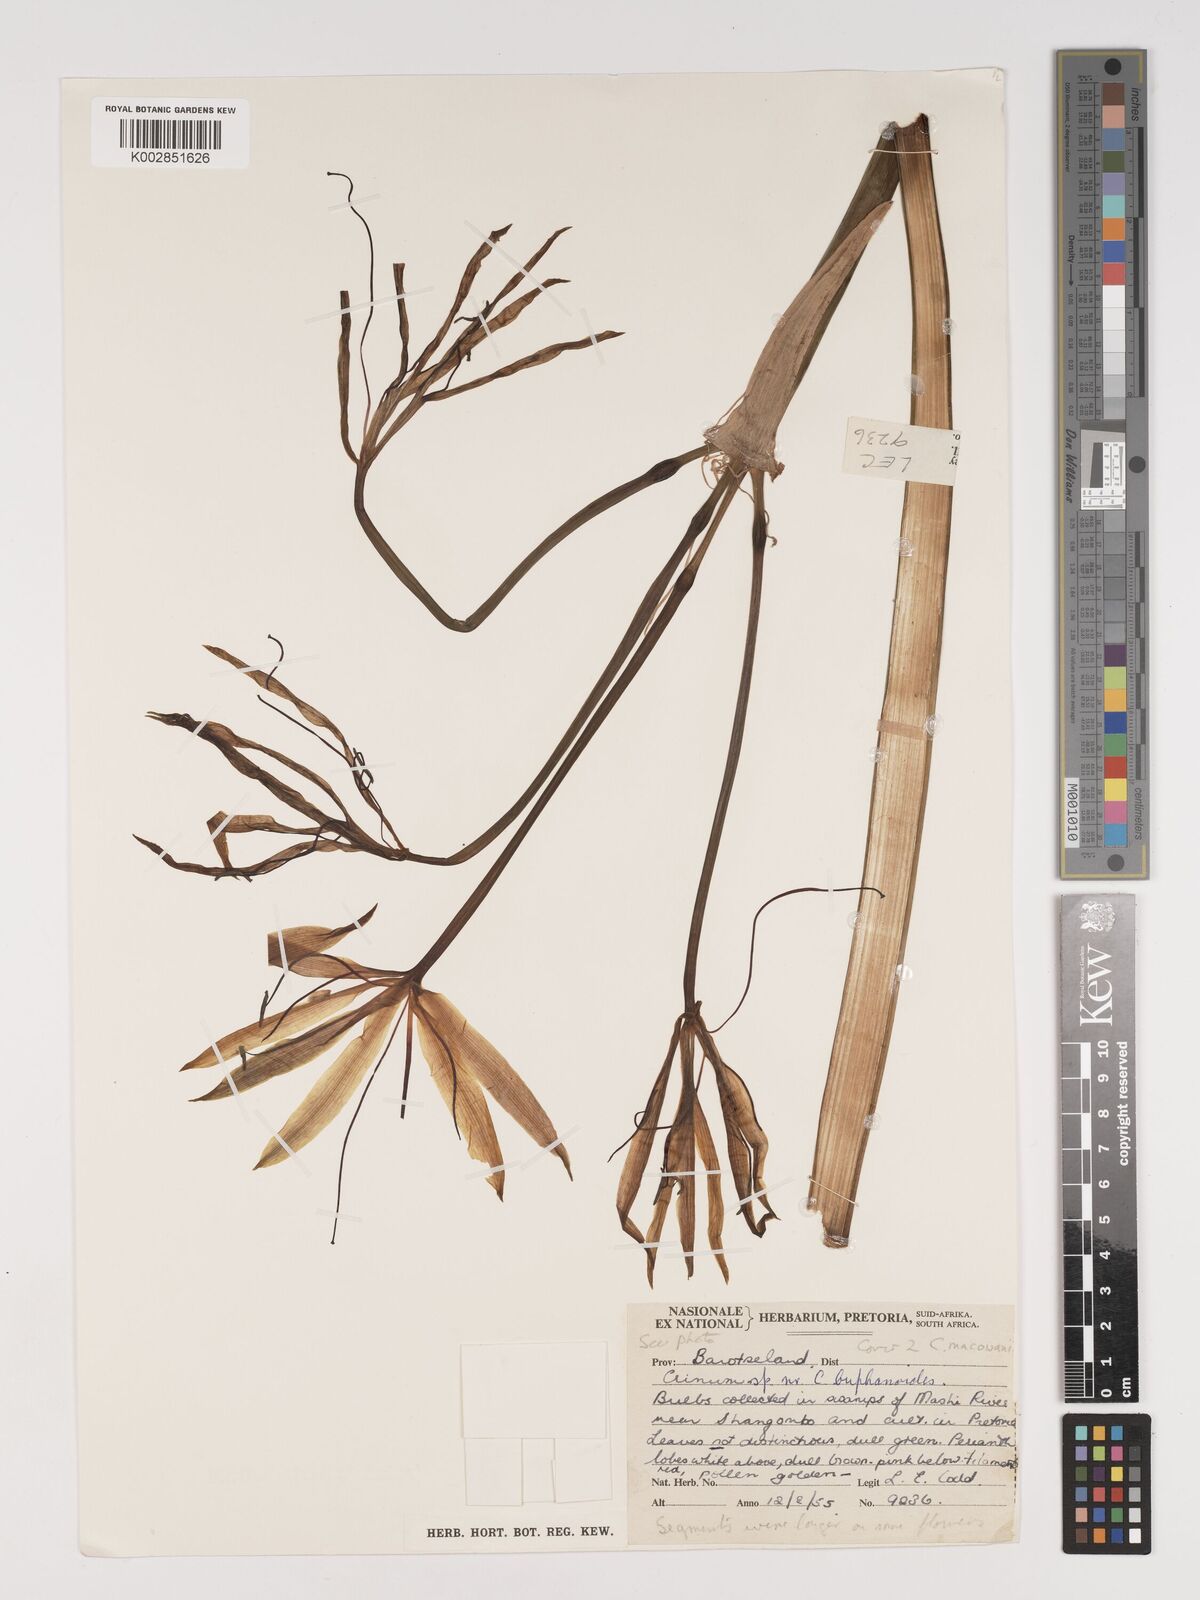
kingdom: Plantae
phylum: Tracheophyta
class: Liliopsida
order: Asparagales
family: Amaryllidaceae
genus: Crinum
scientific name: Crinum
